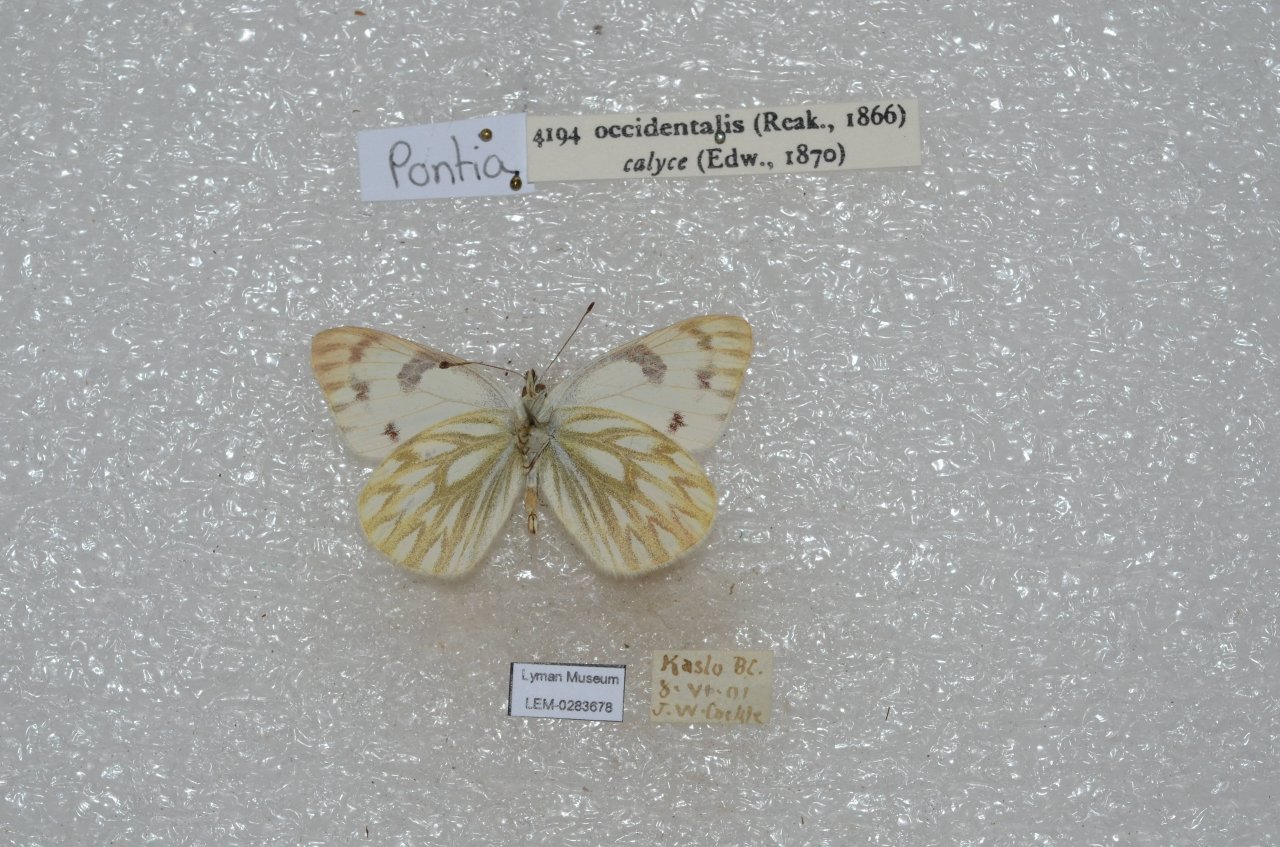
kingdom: Animalia
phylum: Arthropoda
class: Insecta
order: Lepidoptera
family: Pieridae
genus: Pontia
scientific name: Pontia occidentalis
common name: Western White
